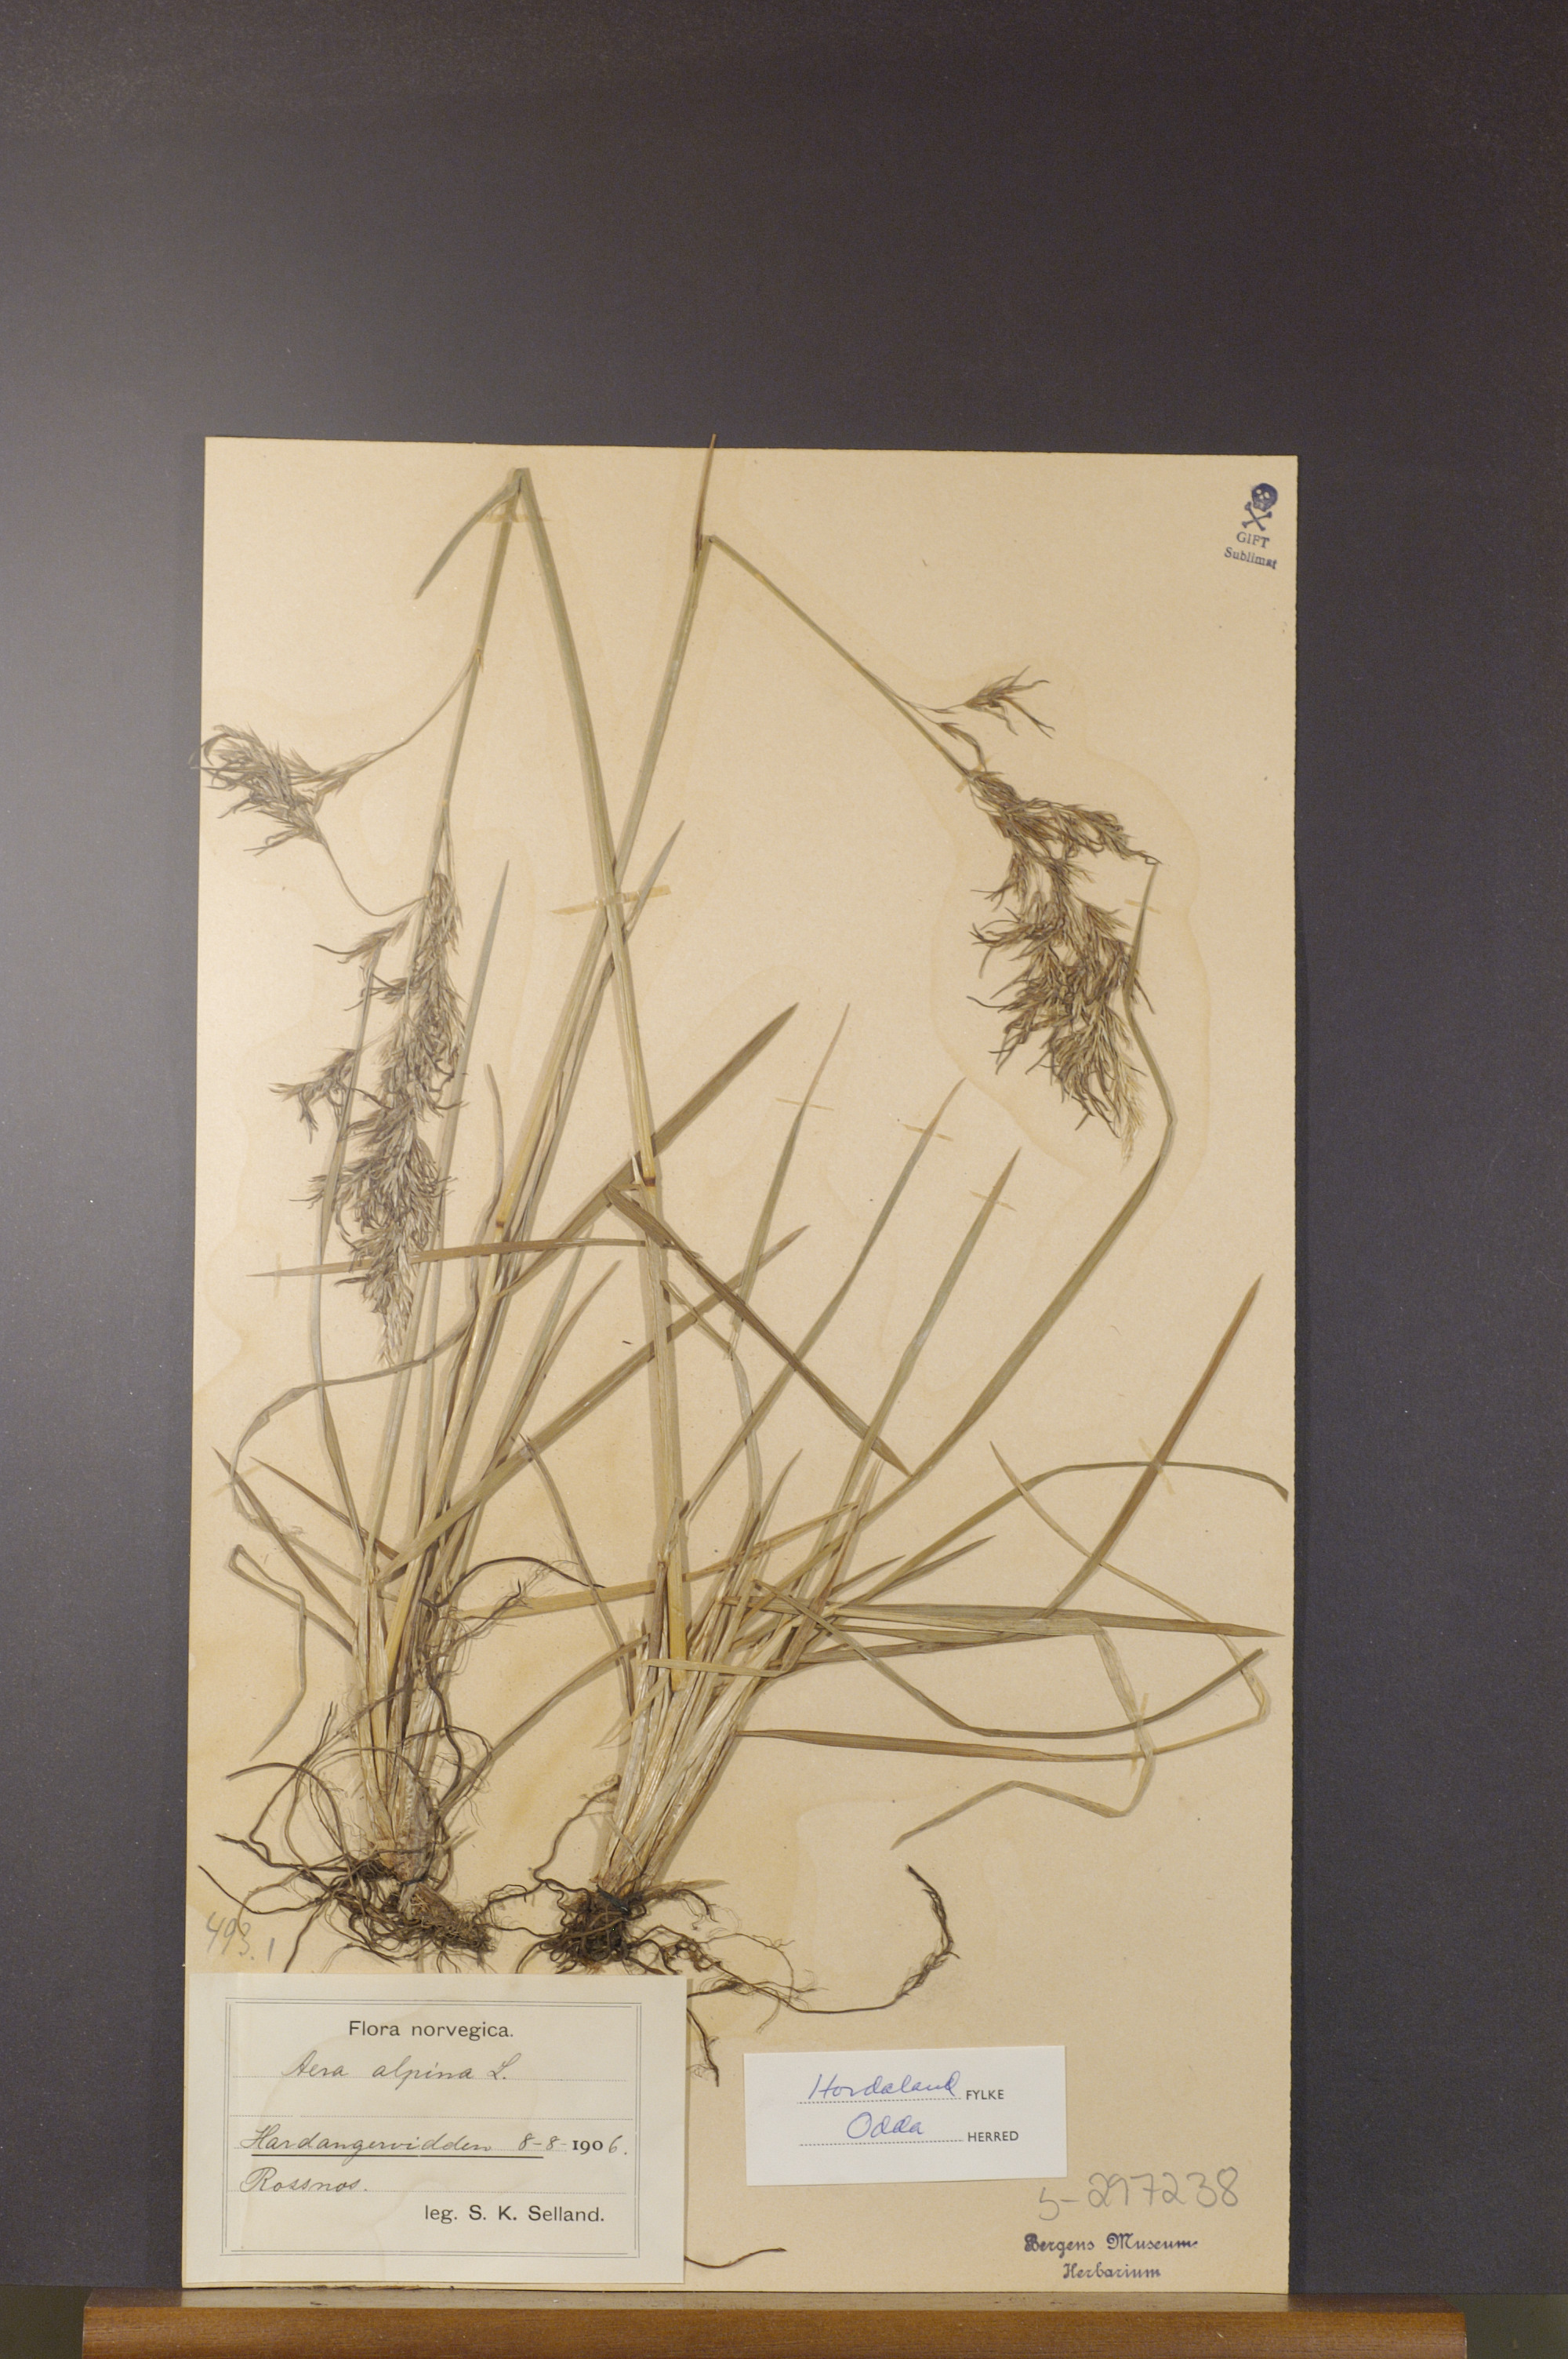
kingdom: Plantae
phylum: Tracheophyta
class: Liliopsida
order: Poales
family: Poaceae
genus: Deschampsia
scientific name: Deschampsia cespitosa
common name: Tufted hair-grass
